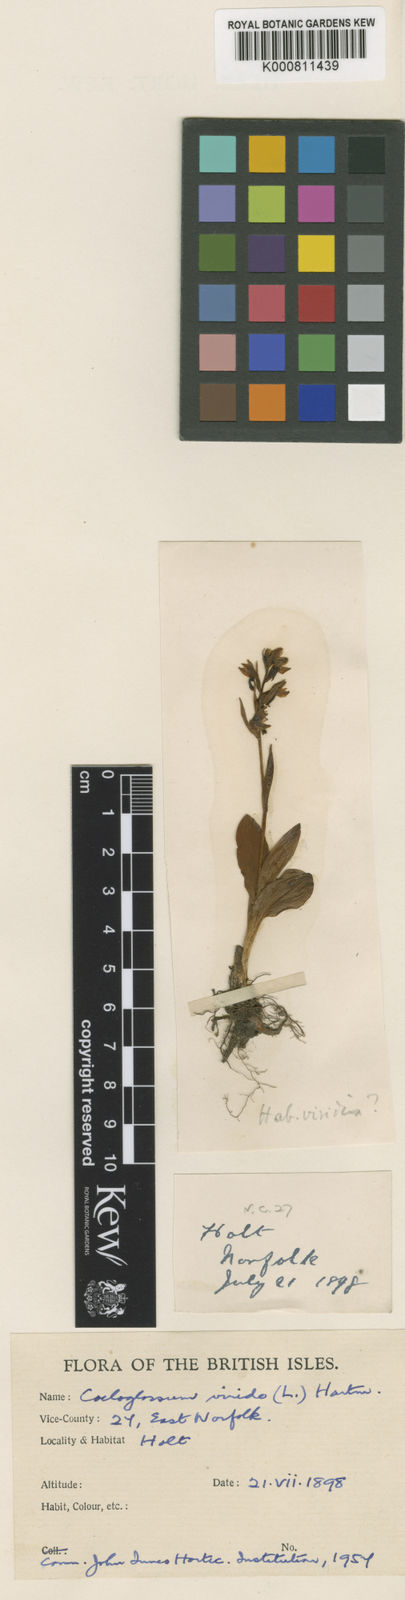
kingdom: Plantae
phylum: Tracheophyta
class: Liliopsida
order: Asparagales
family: Orchidaceae
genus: Dactylorhiza
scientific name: Dactylorhiza viridis
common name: Longbract frog orchid
